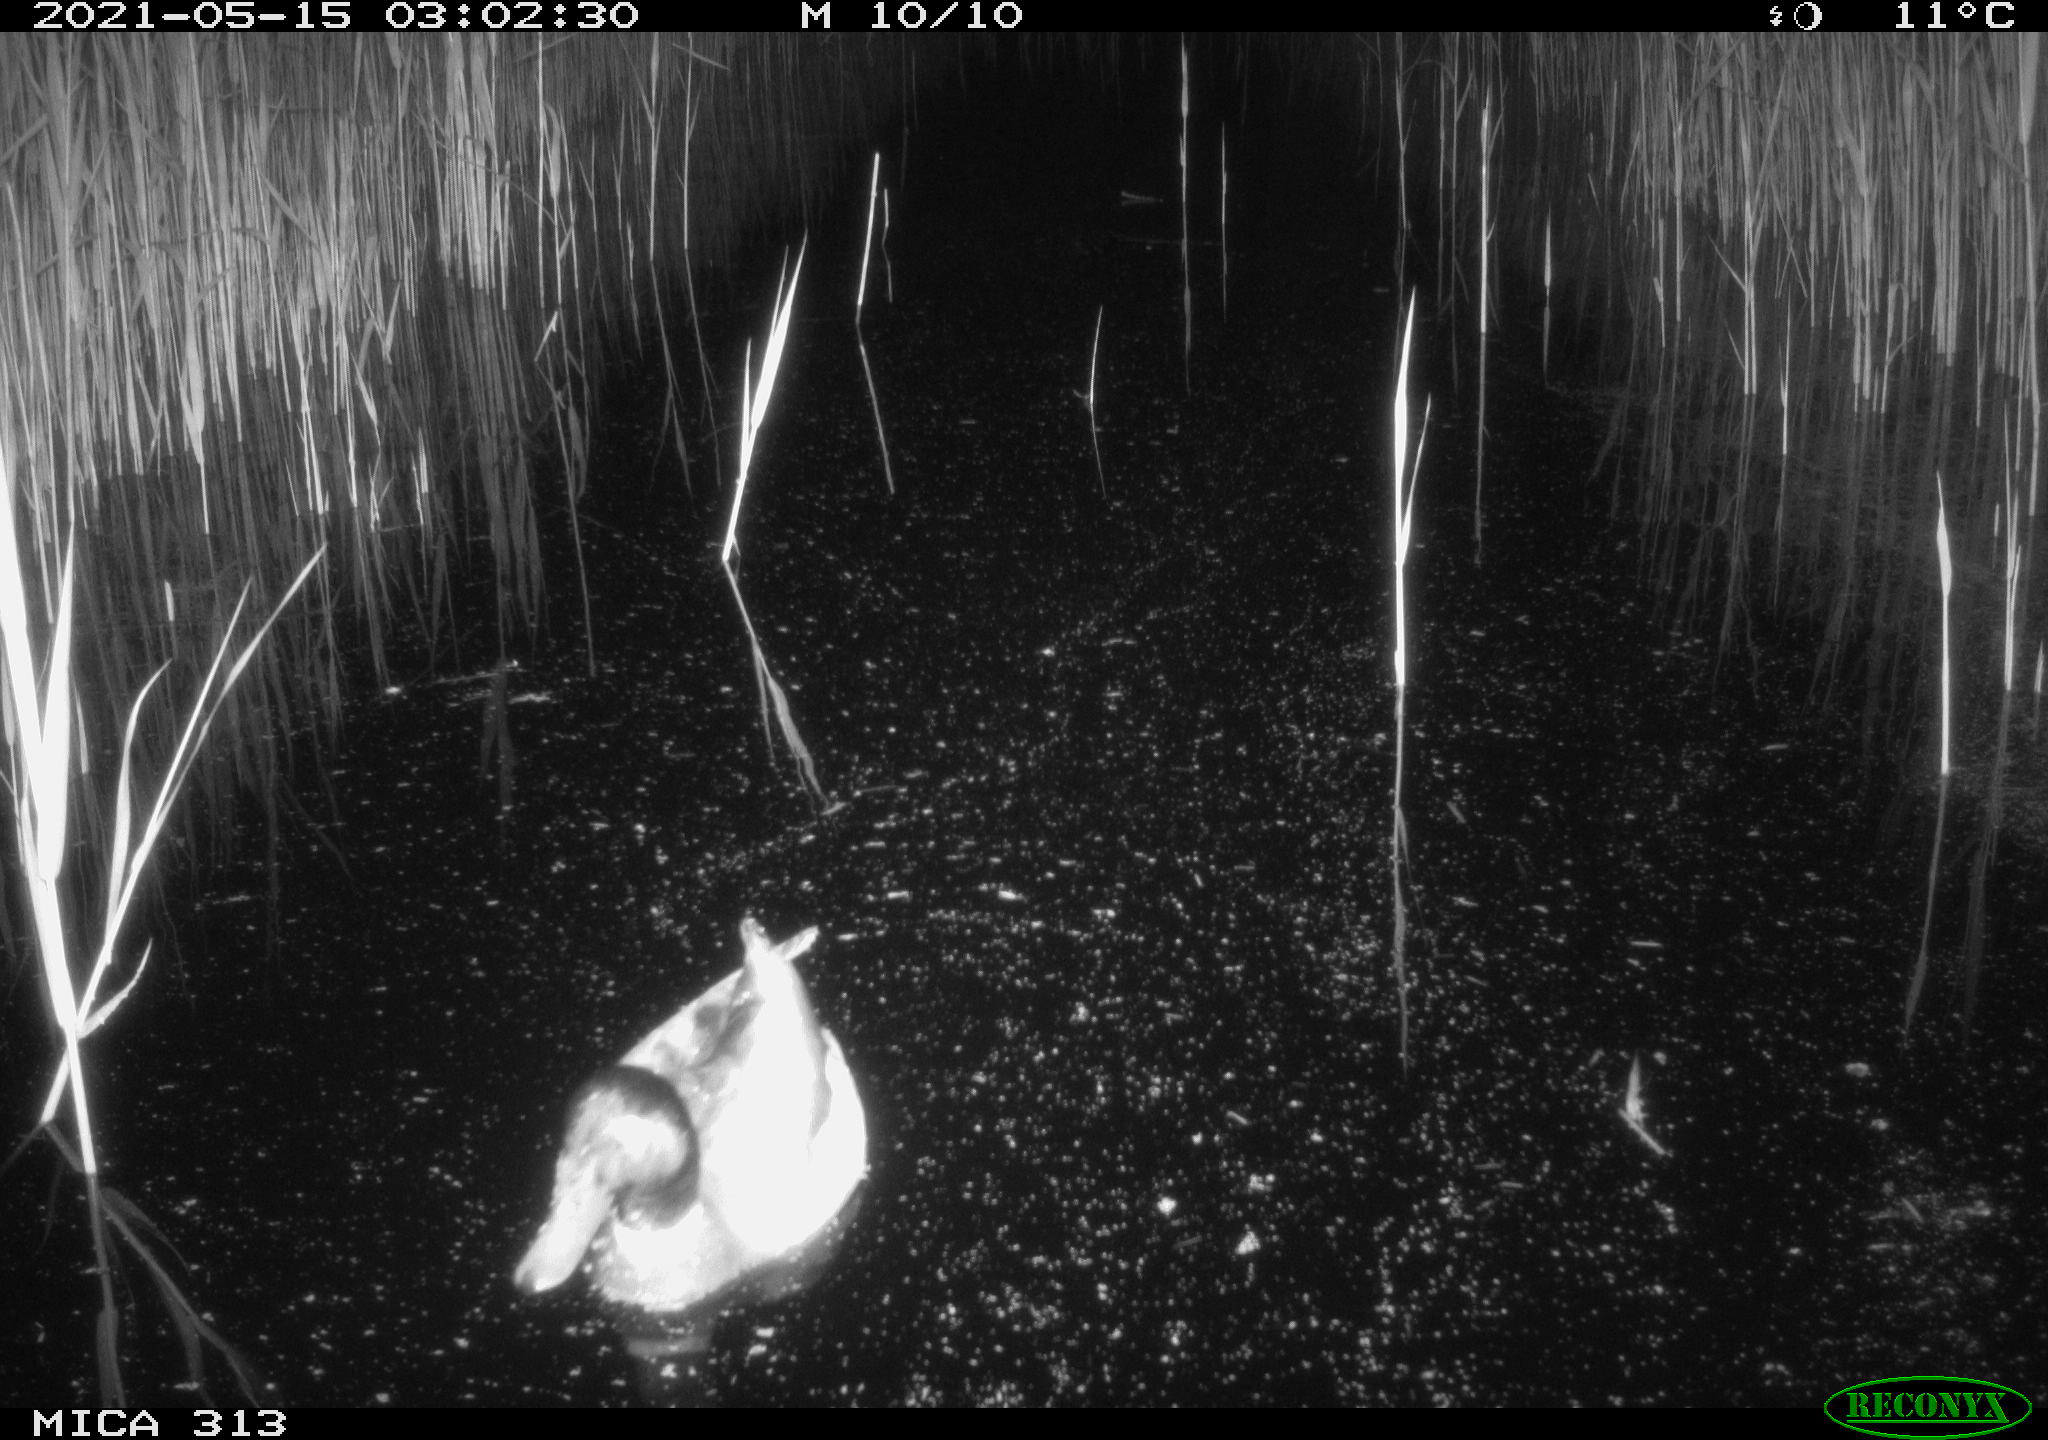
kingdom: Animalia
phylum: Chordata
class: Aves
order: Anseriformes
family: Anatidae
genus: Anas
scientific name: Anas platyrhynchos
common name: Mallard
